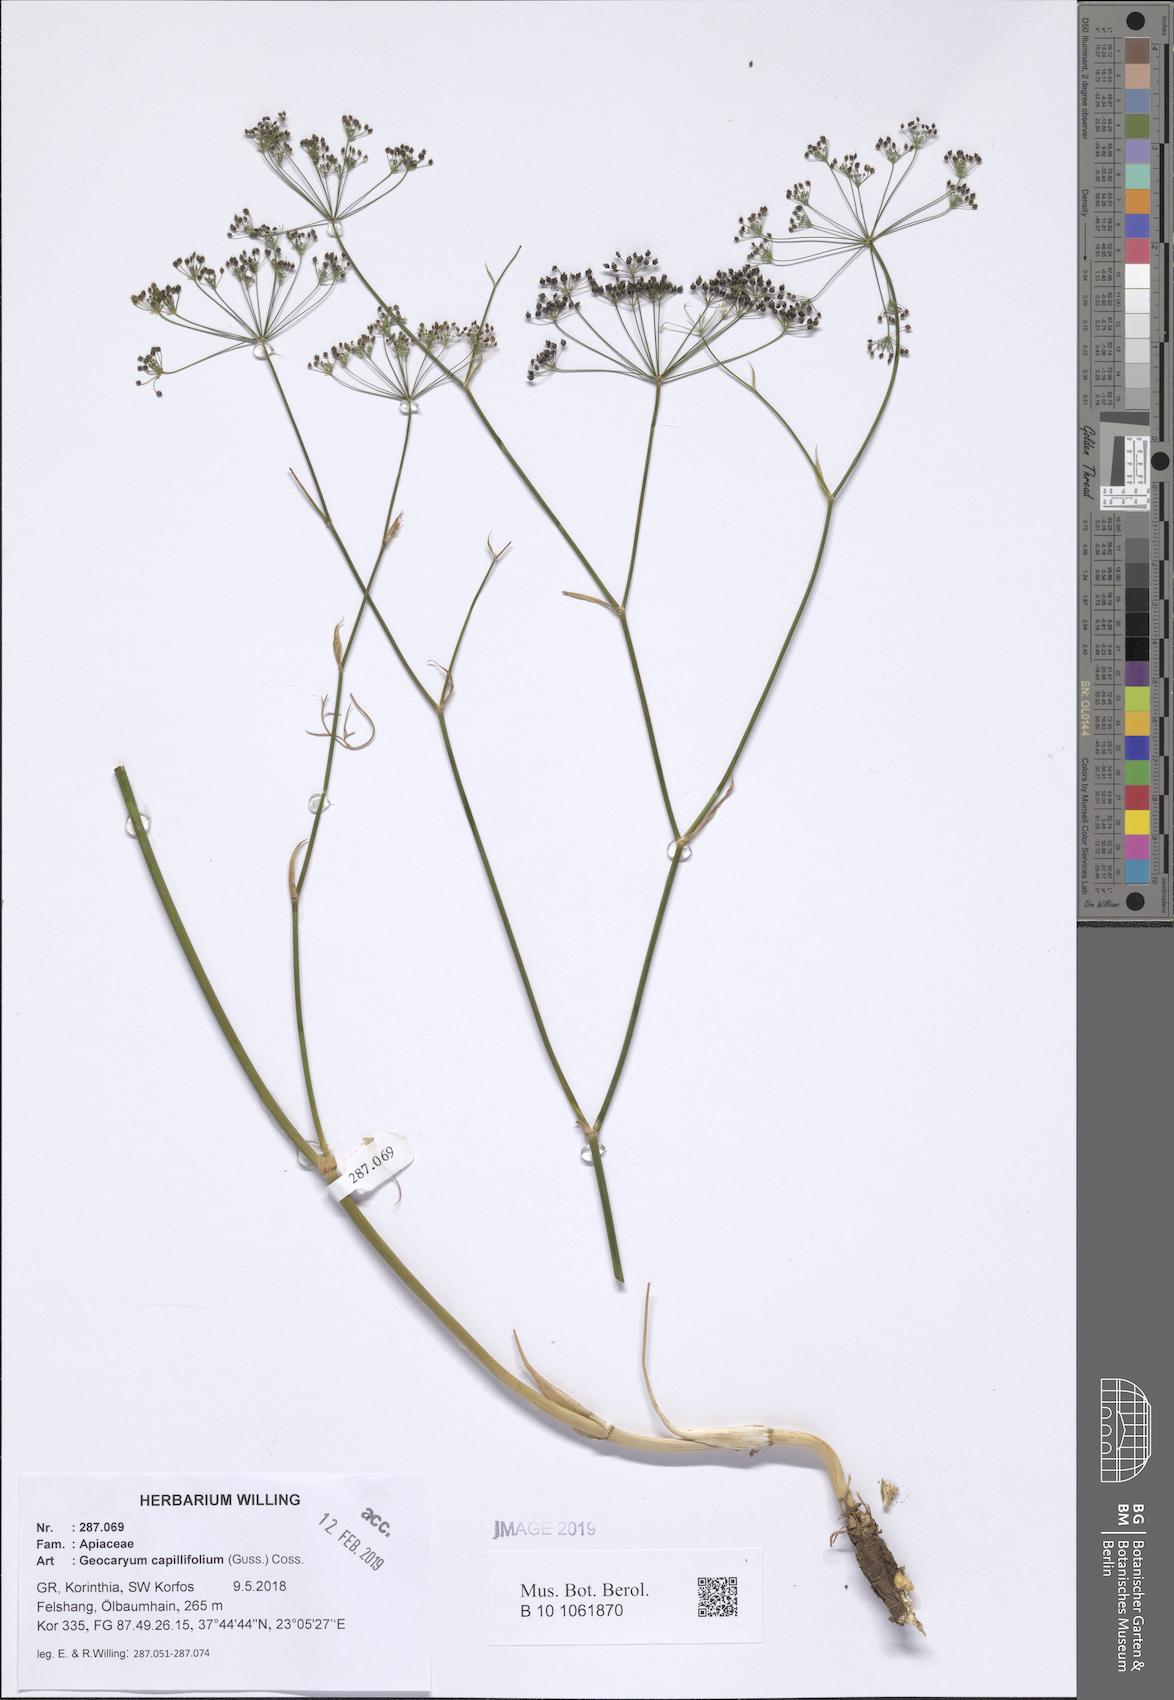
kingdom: Plantae
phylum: Tracheophyta
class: Magnoliopsida
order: Apiales
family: Apiaceae
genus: Geocaryum
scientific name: Geocaryum capillifolium
